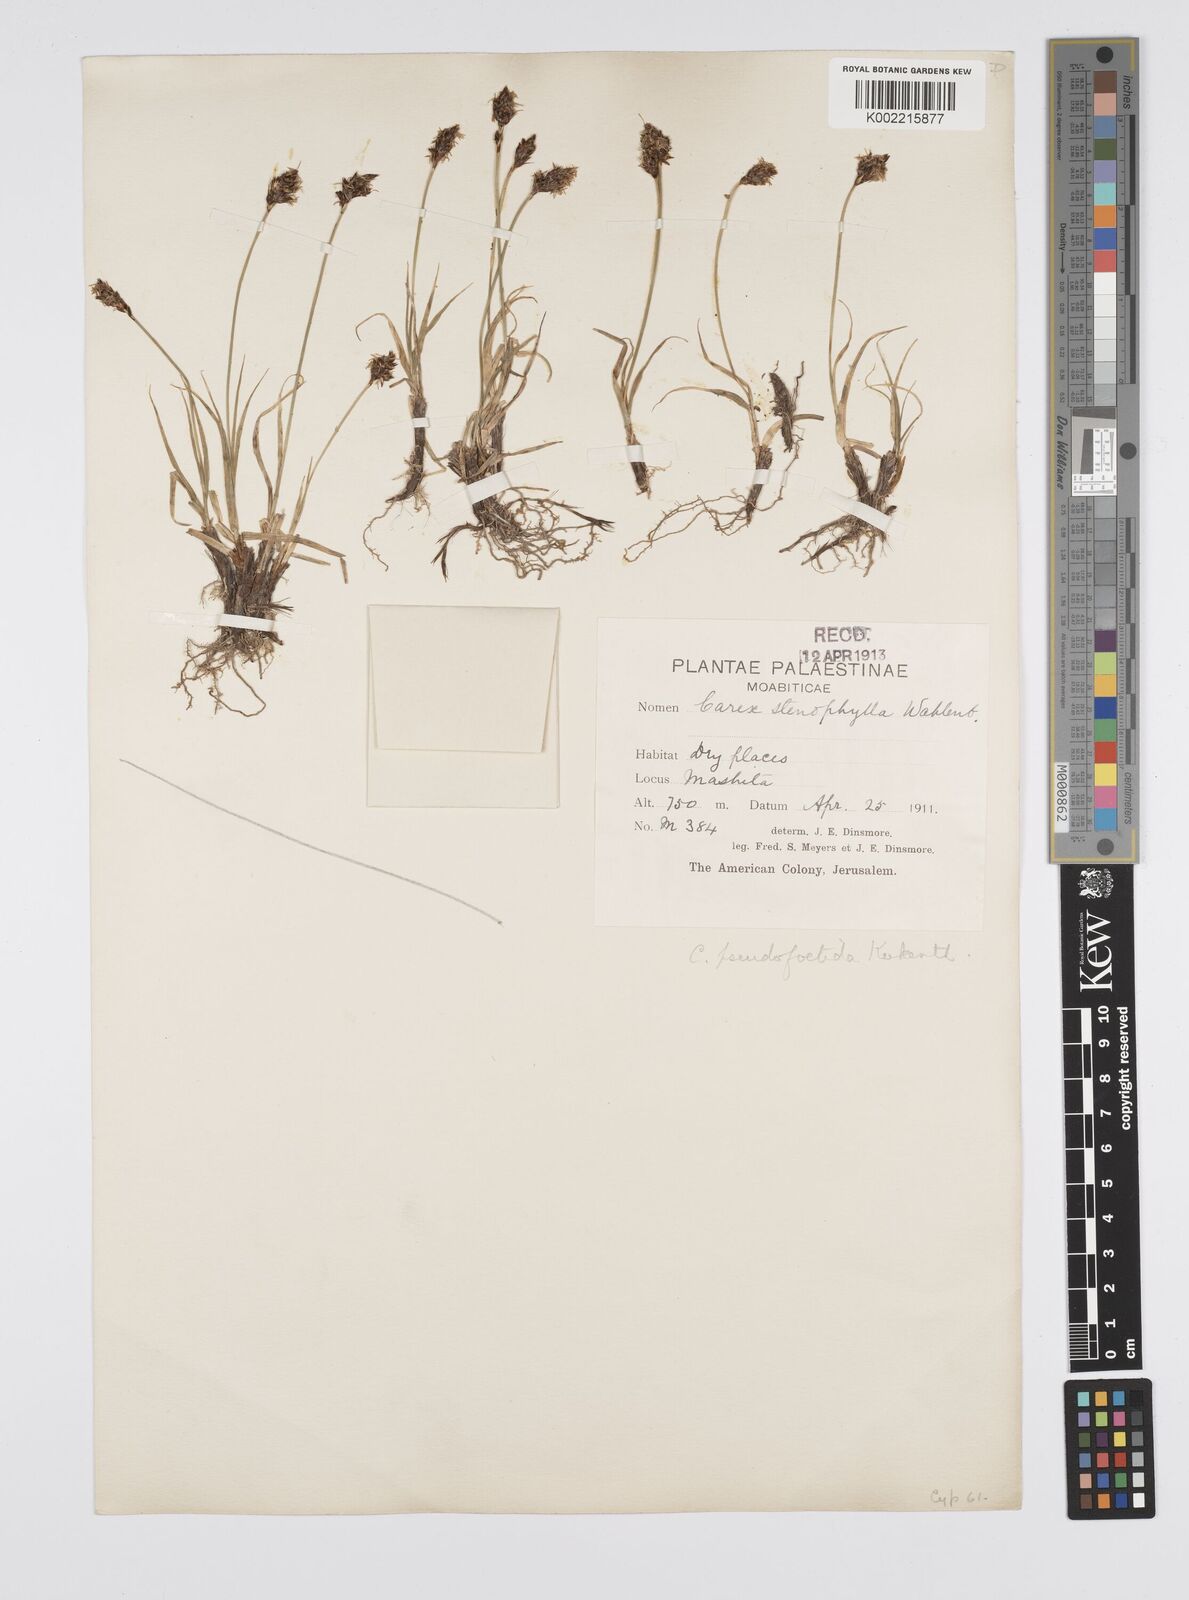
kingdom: Plantae
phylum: Tracheophyta
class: Liliopsida
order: Poales
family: Cyperaceae
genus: Carex
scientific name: Carex pseudofoetida
